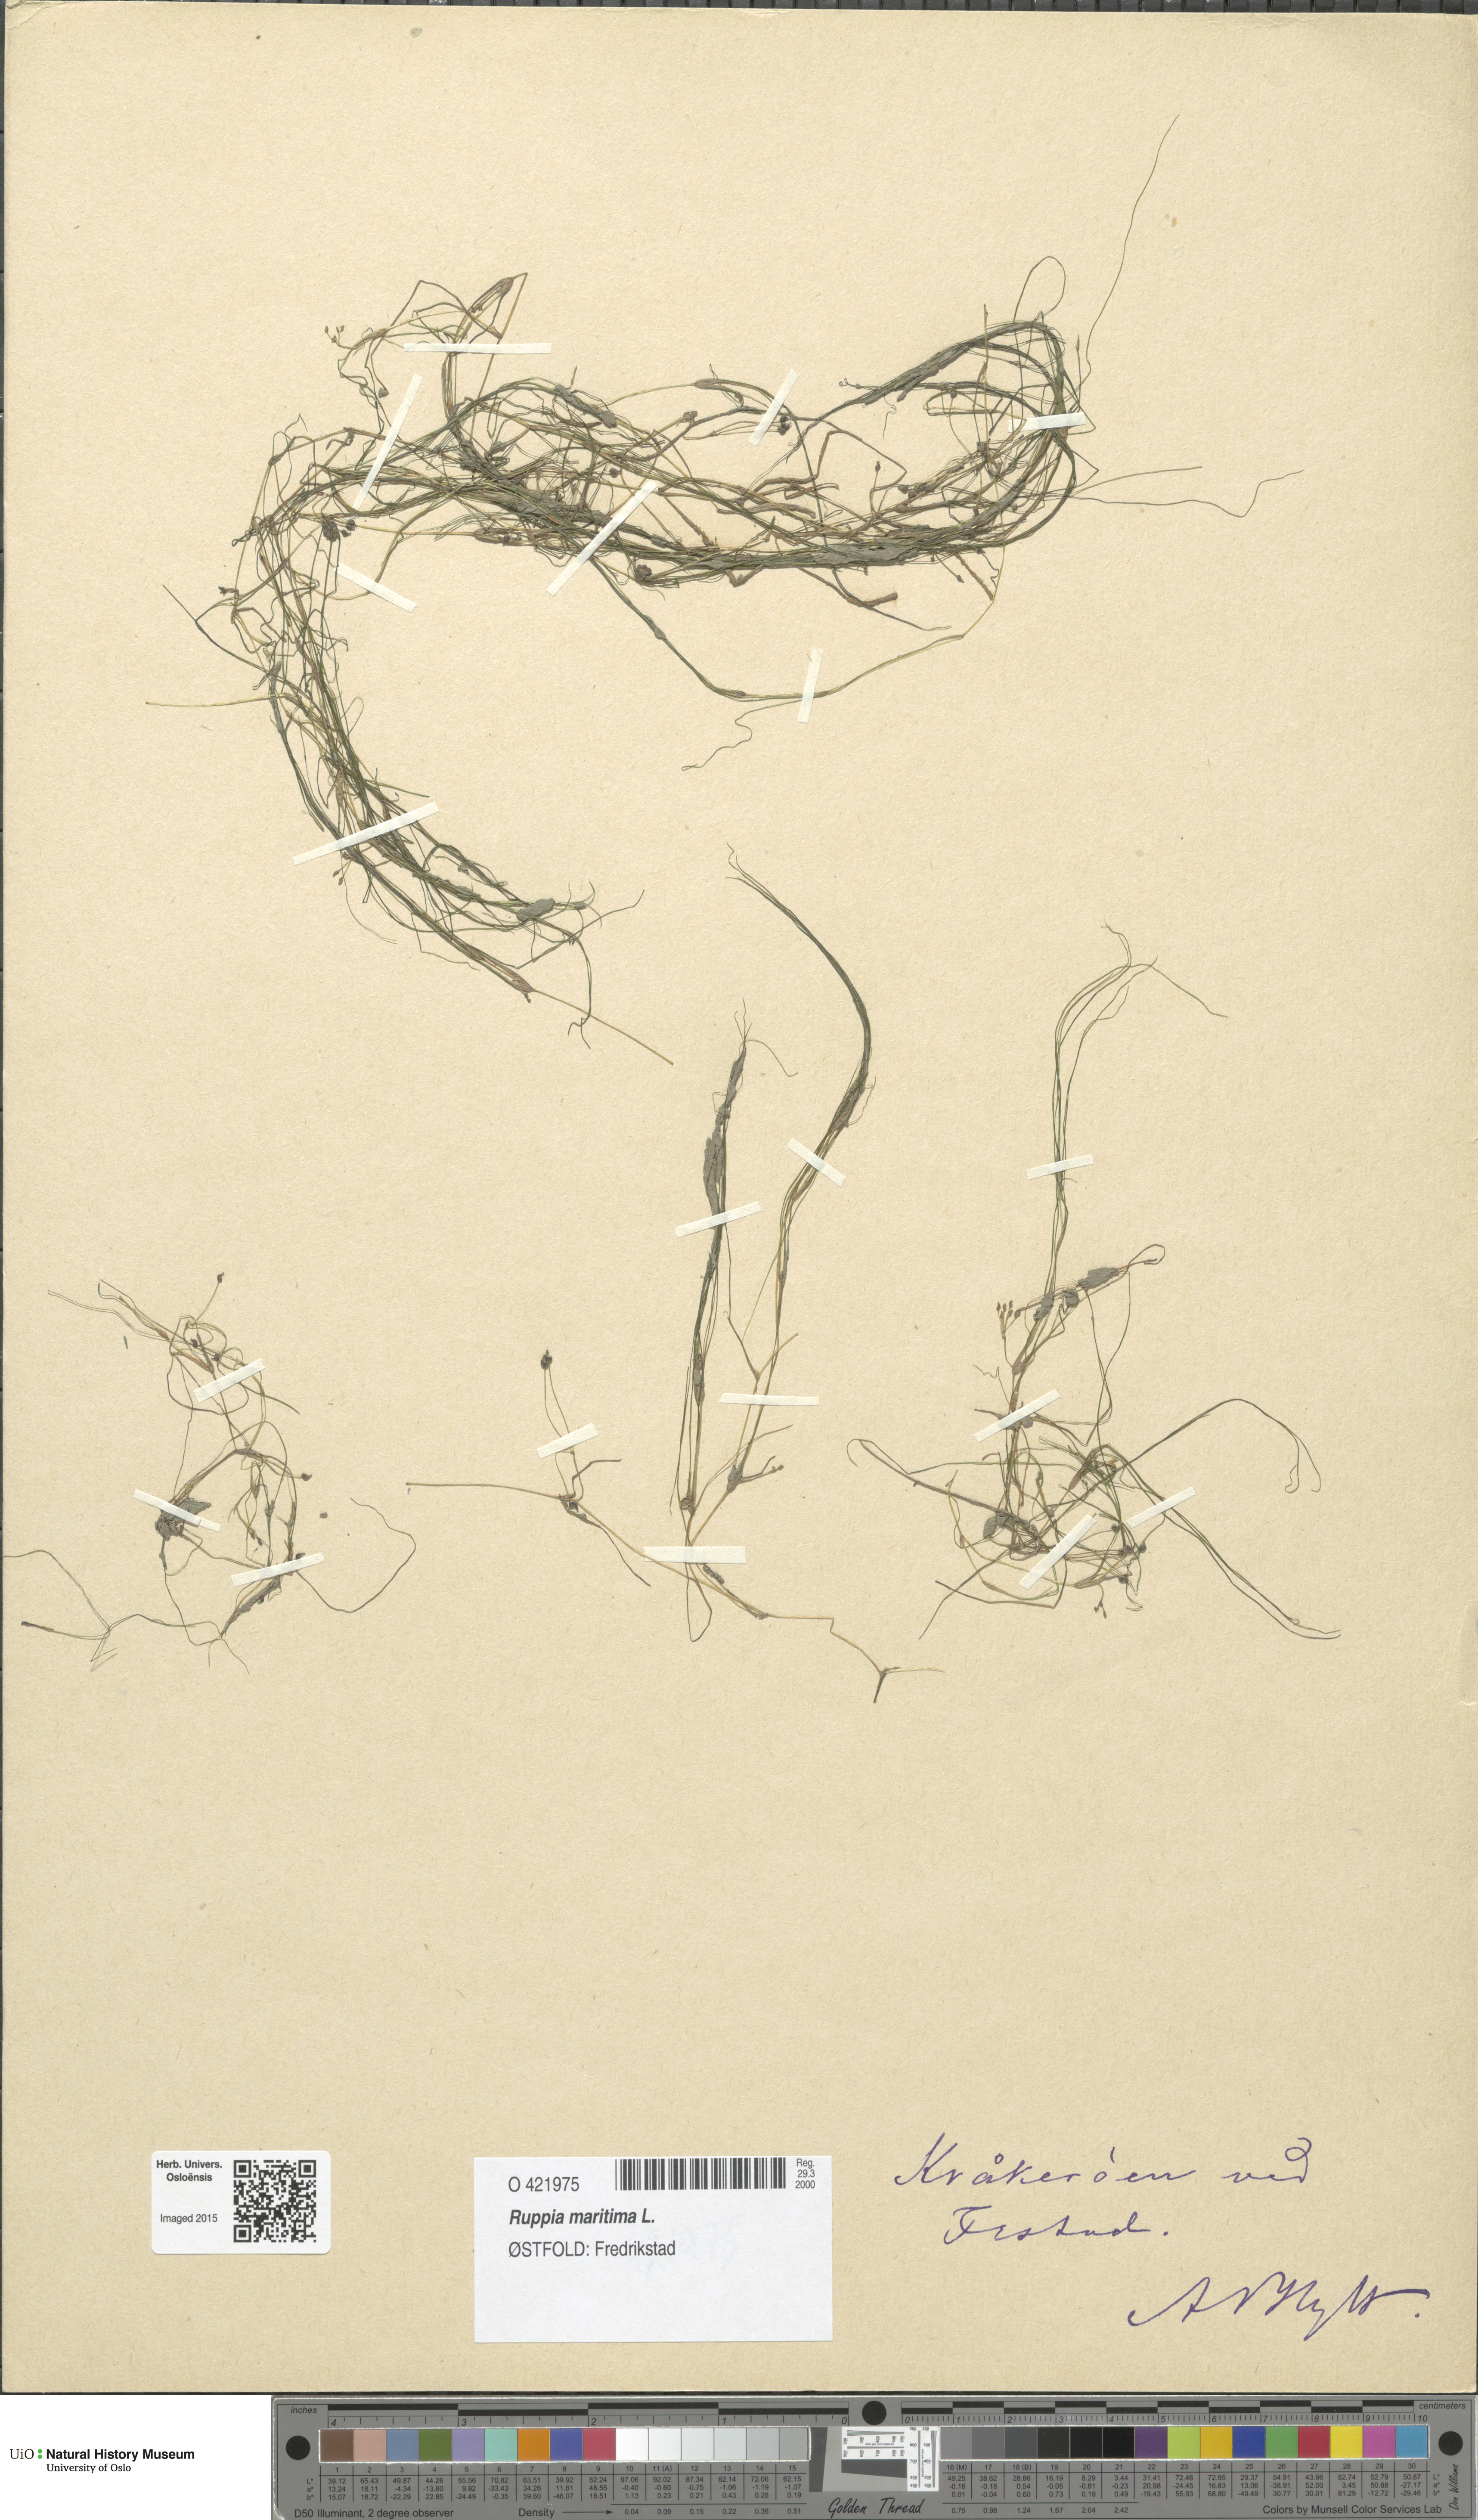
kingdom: Plantae
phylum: Tracheophyta
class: Liliopsida
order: Alismatales
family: Ruppiaceae
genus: Ruppia
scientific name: Ruppia maritima
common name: Beaked tasselweed
